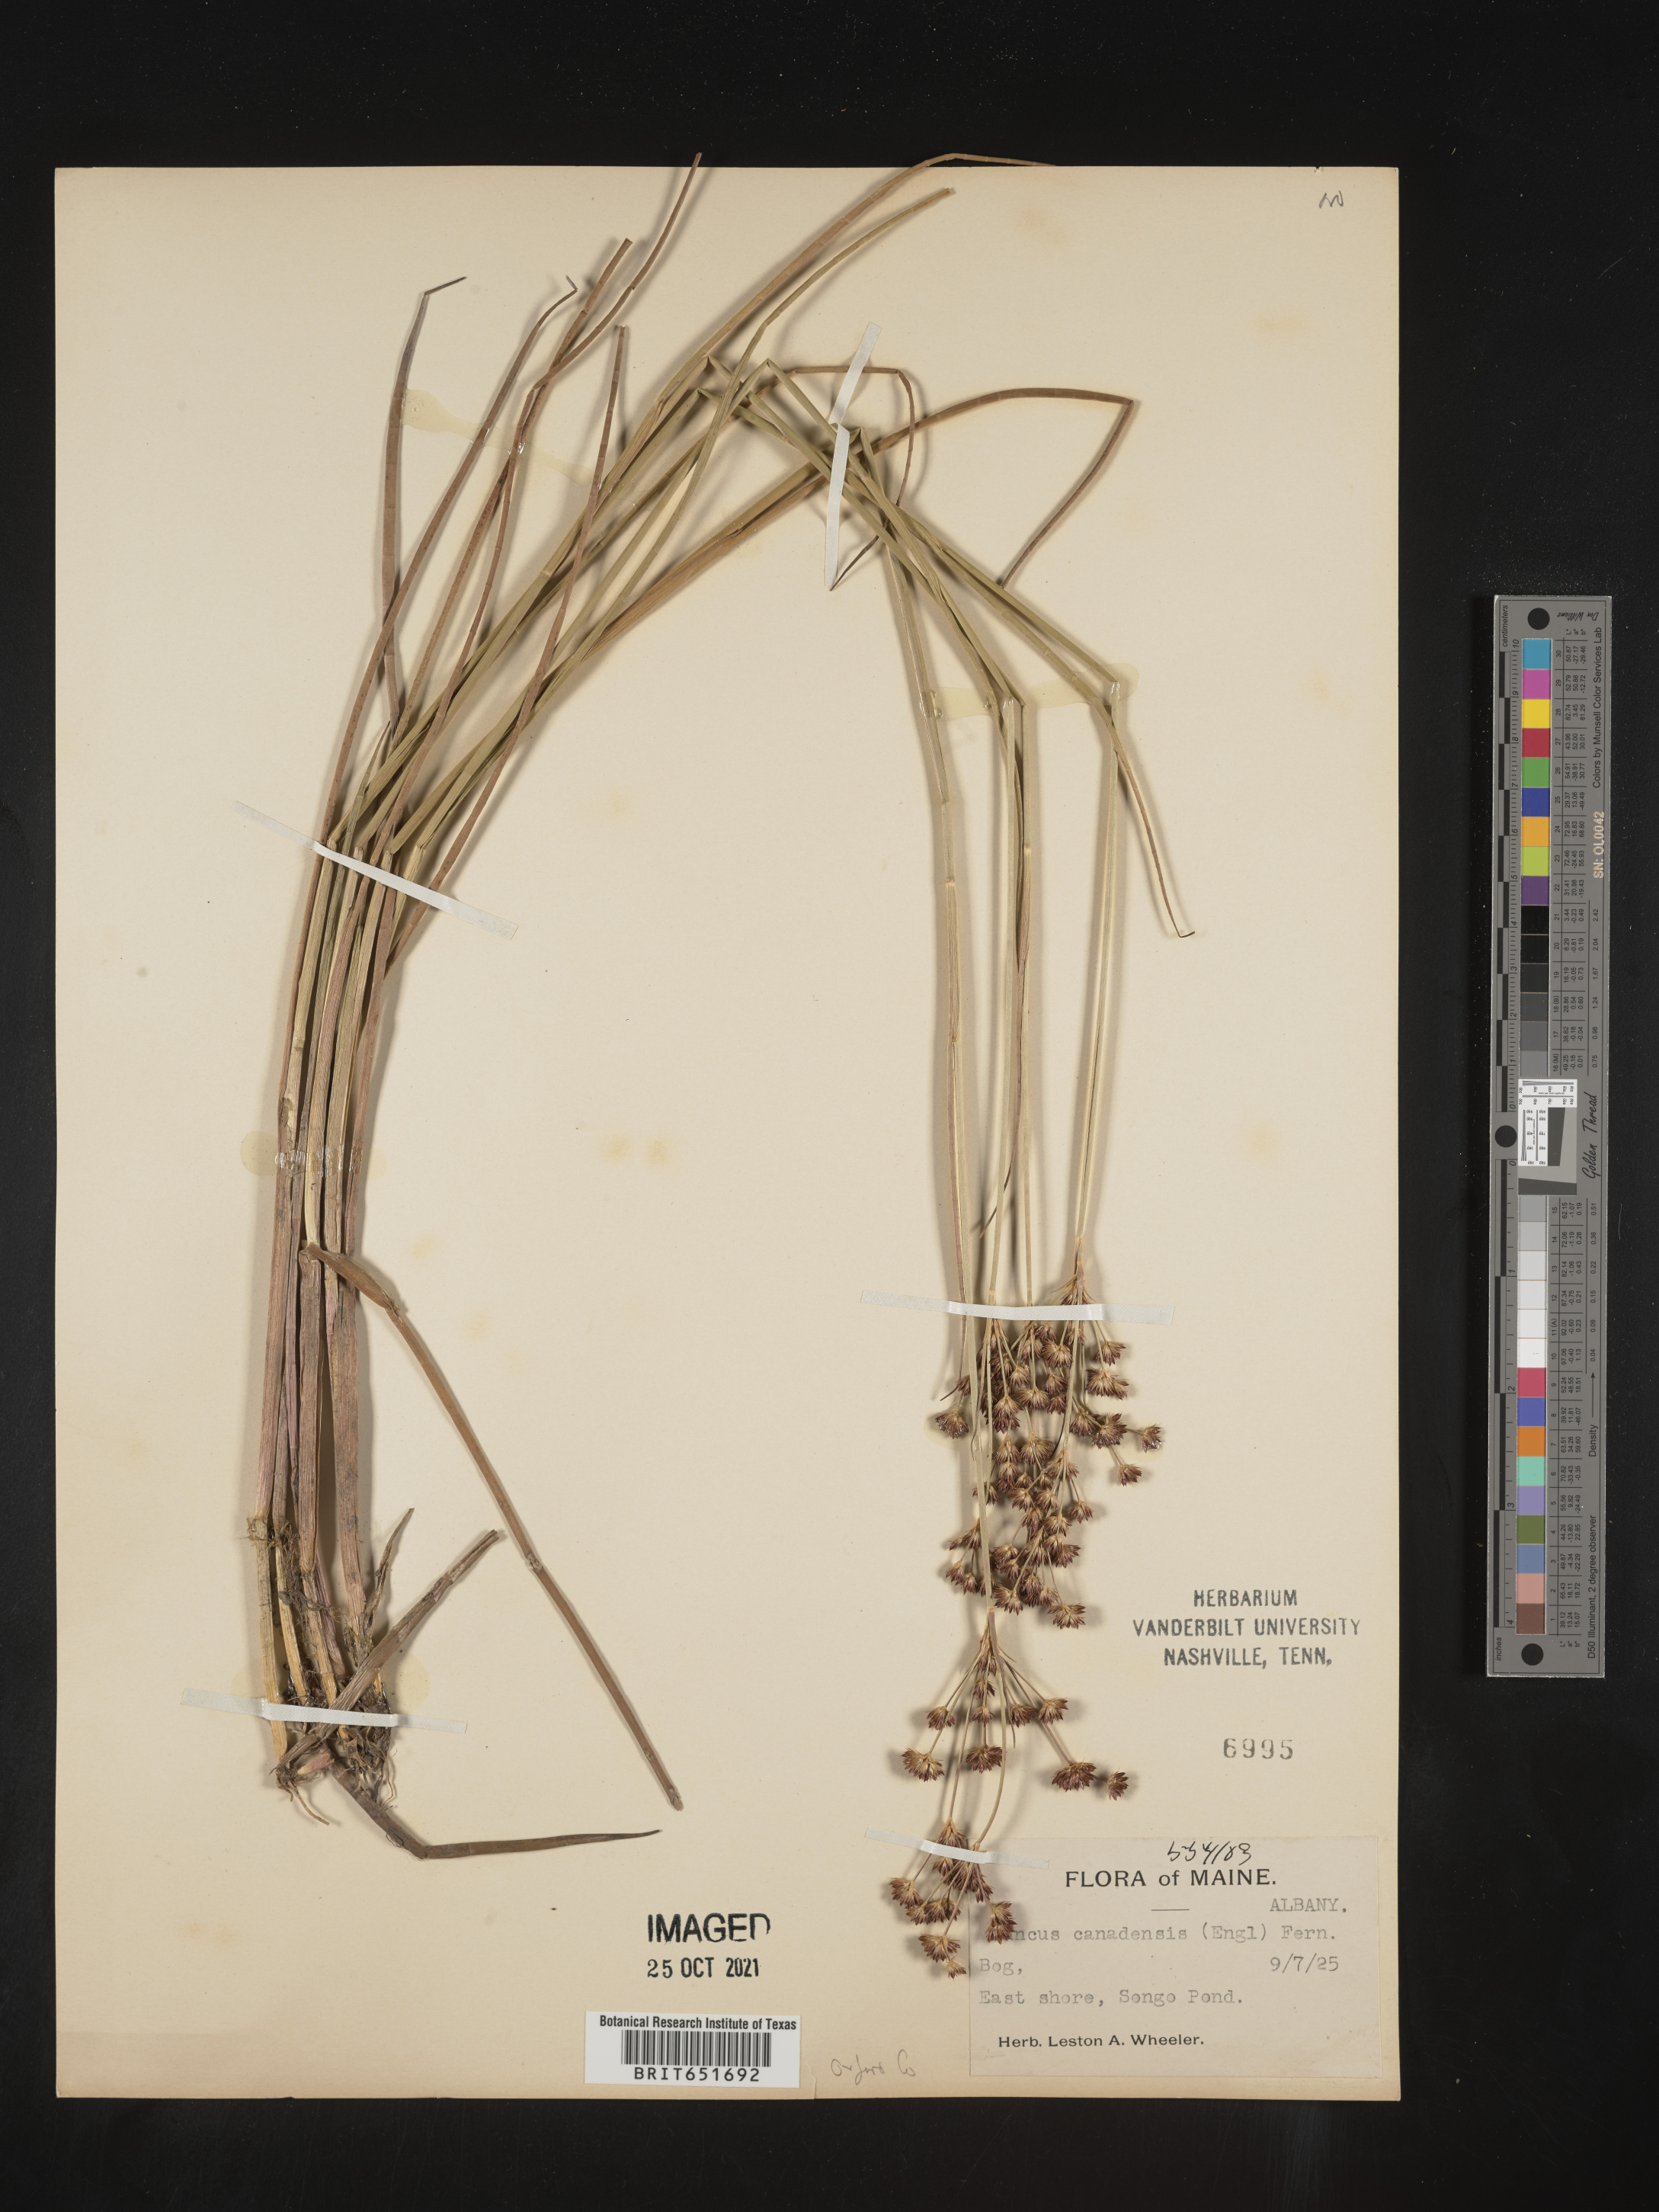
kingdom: Plantae
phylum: Tracheophyta
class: Liliopsida
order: Poales
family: Juncaceae
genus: Juncus
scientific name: Juncus canadensis
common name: Canada rush
